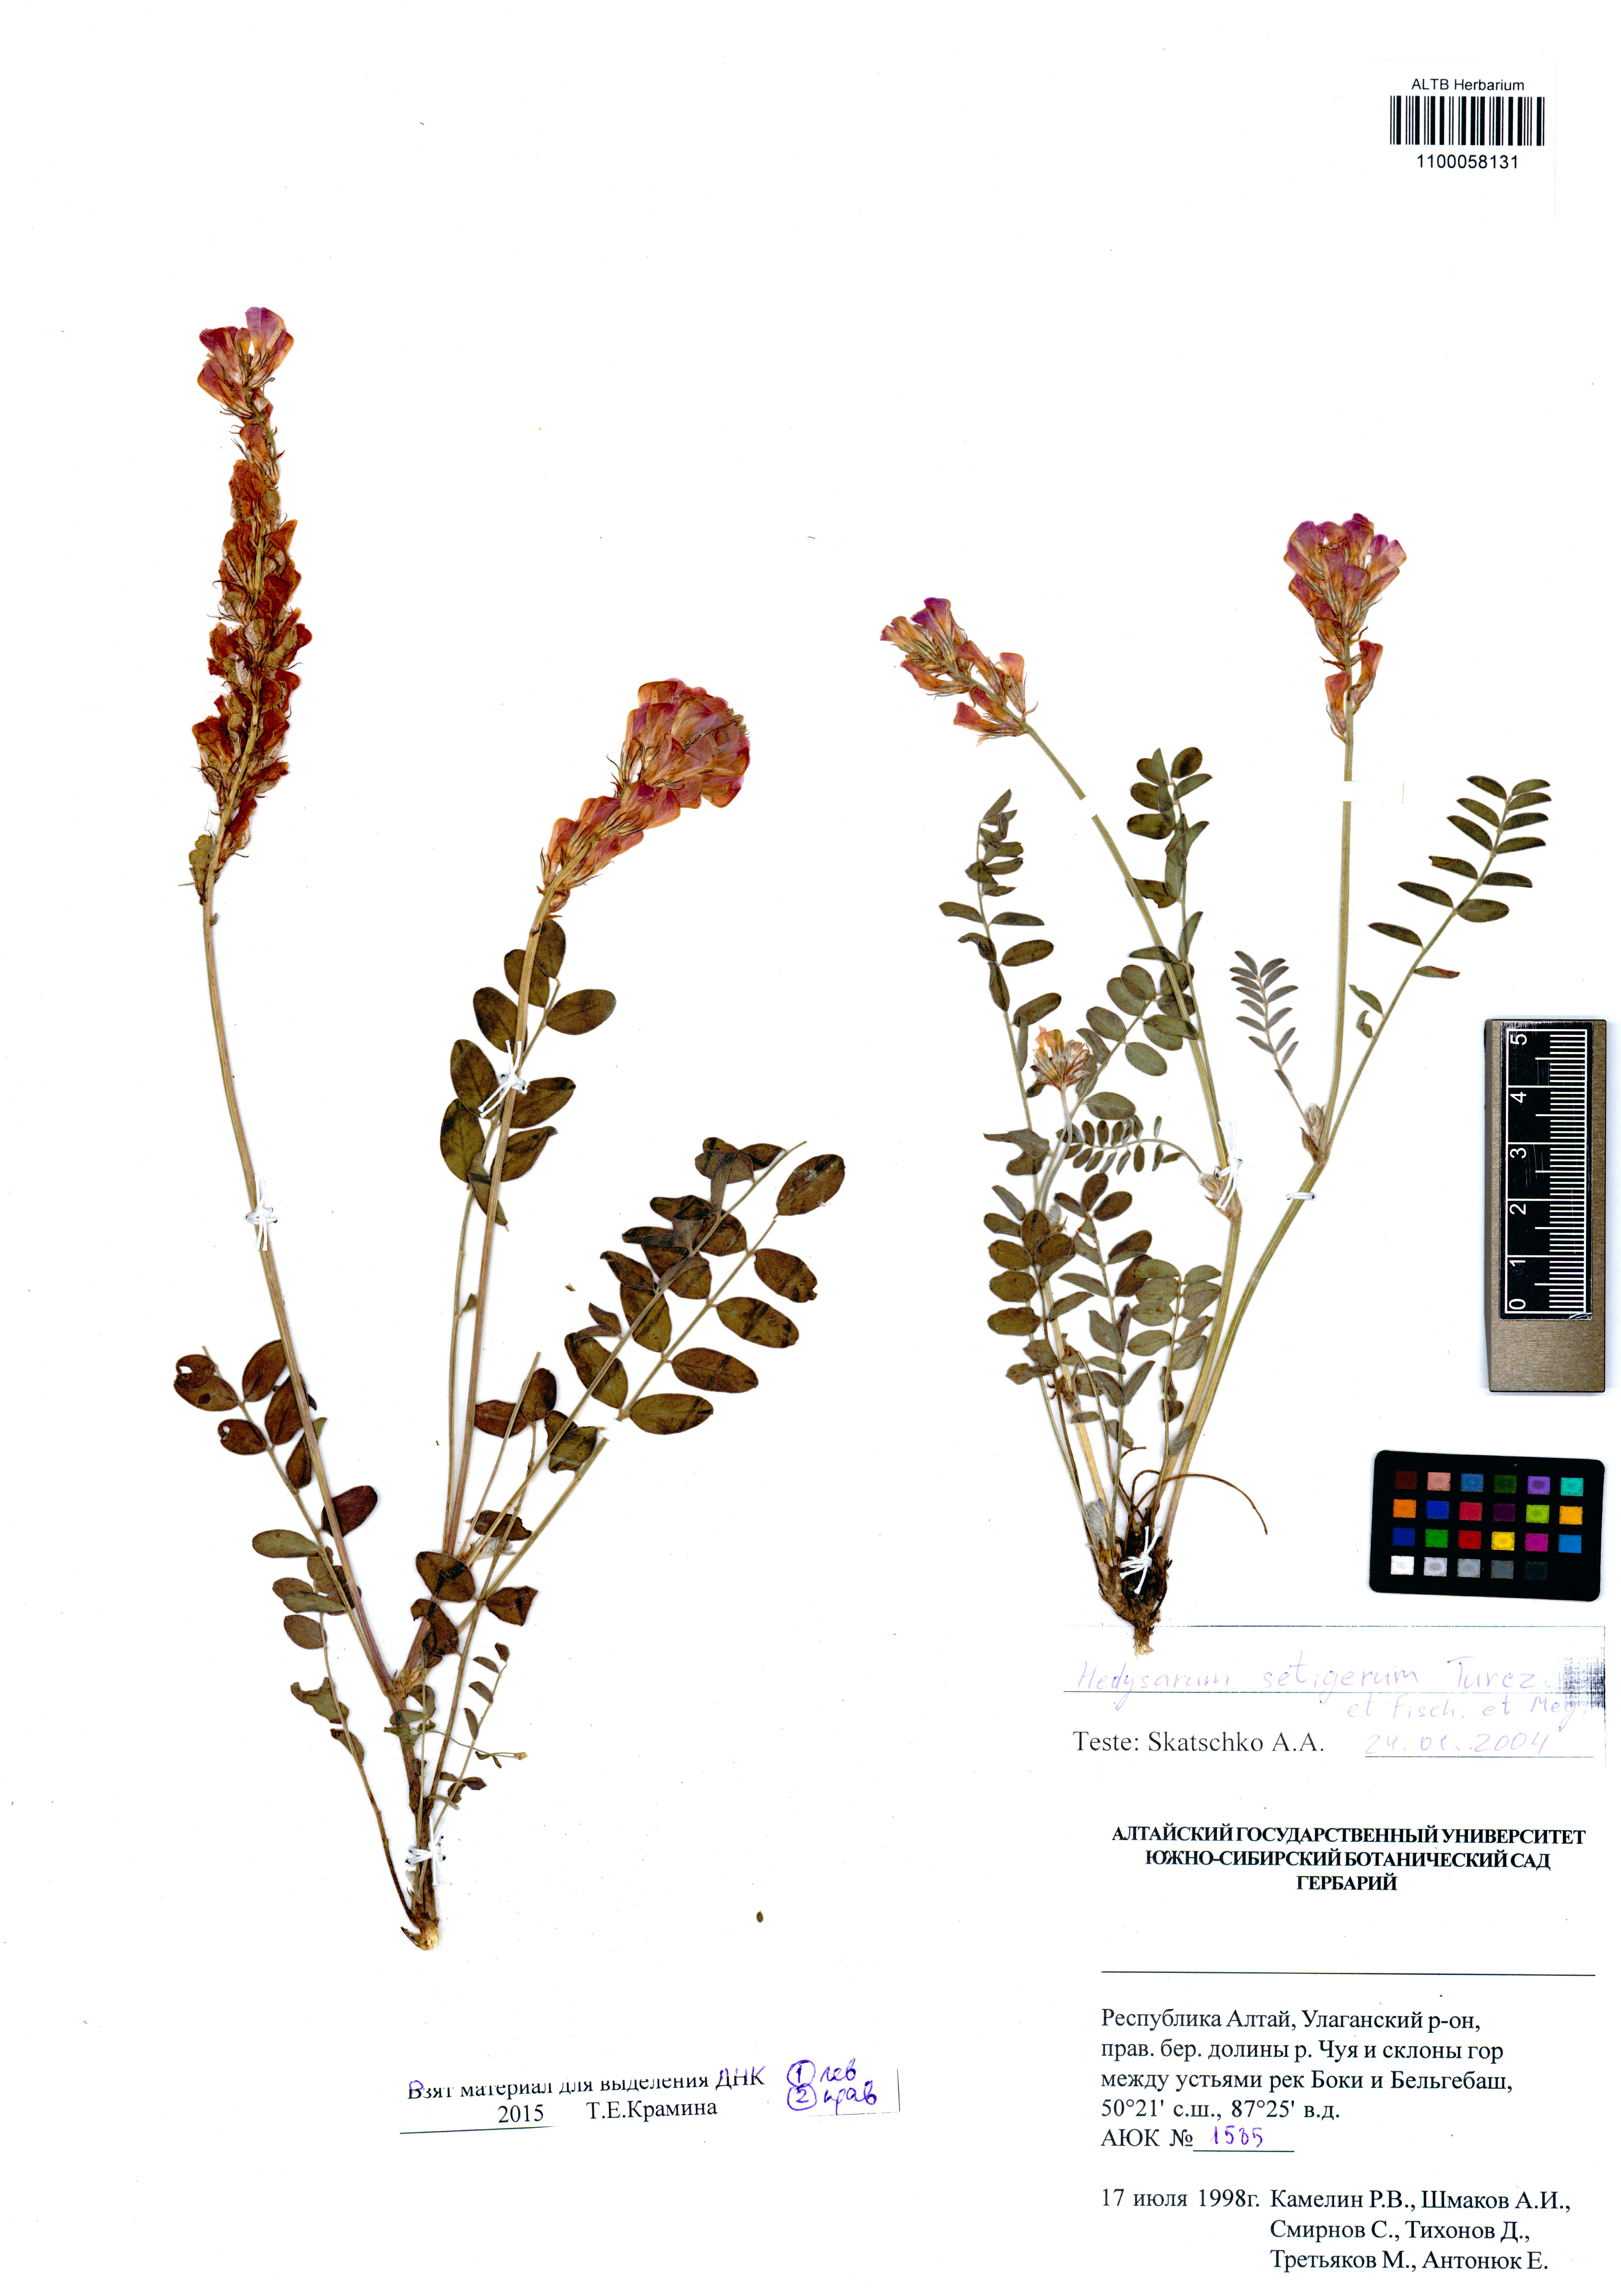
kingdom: Plantae
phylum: Tracheophyta
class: Magnoliopsida
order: Fabales
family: Fabaceae
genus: Hedysarum
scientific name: Hedysarum setigerum
